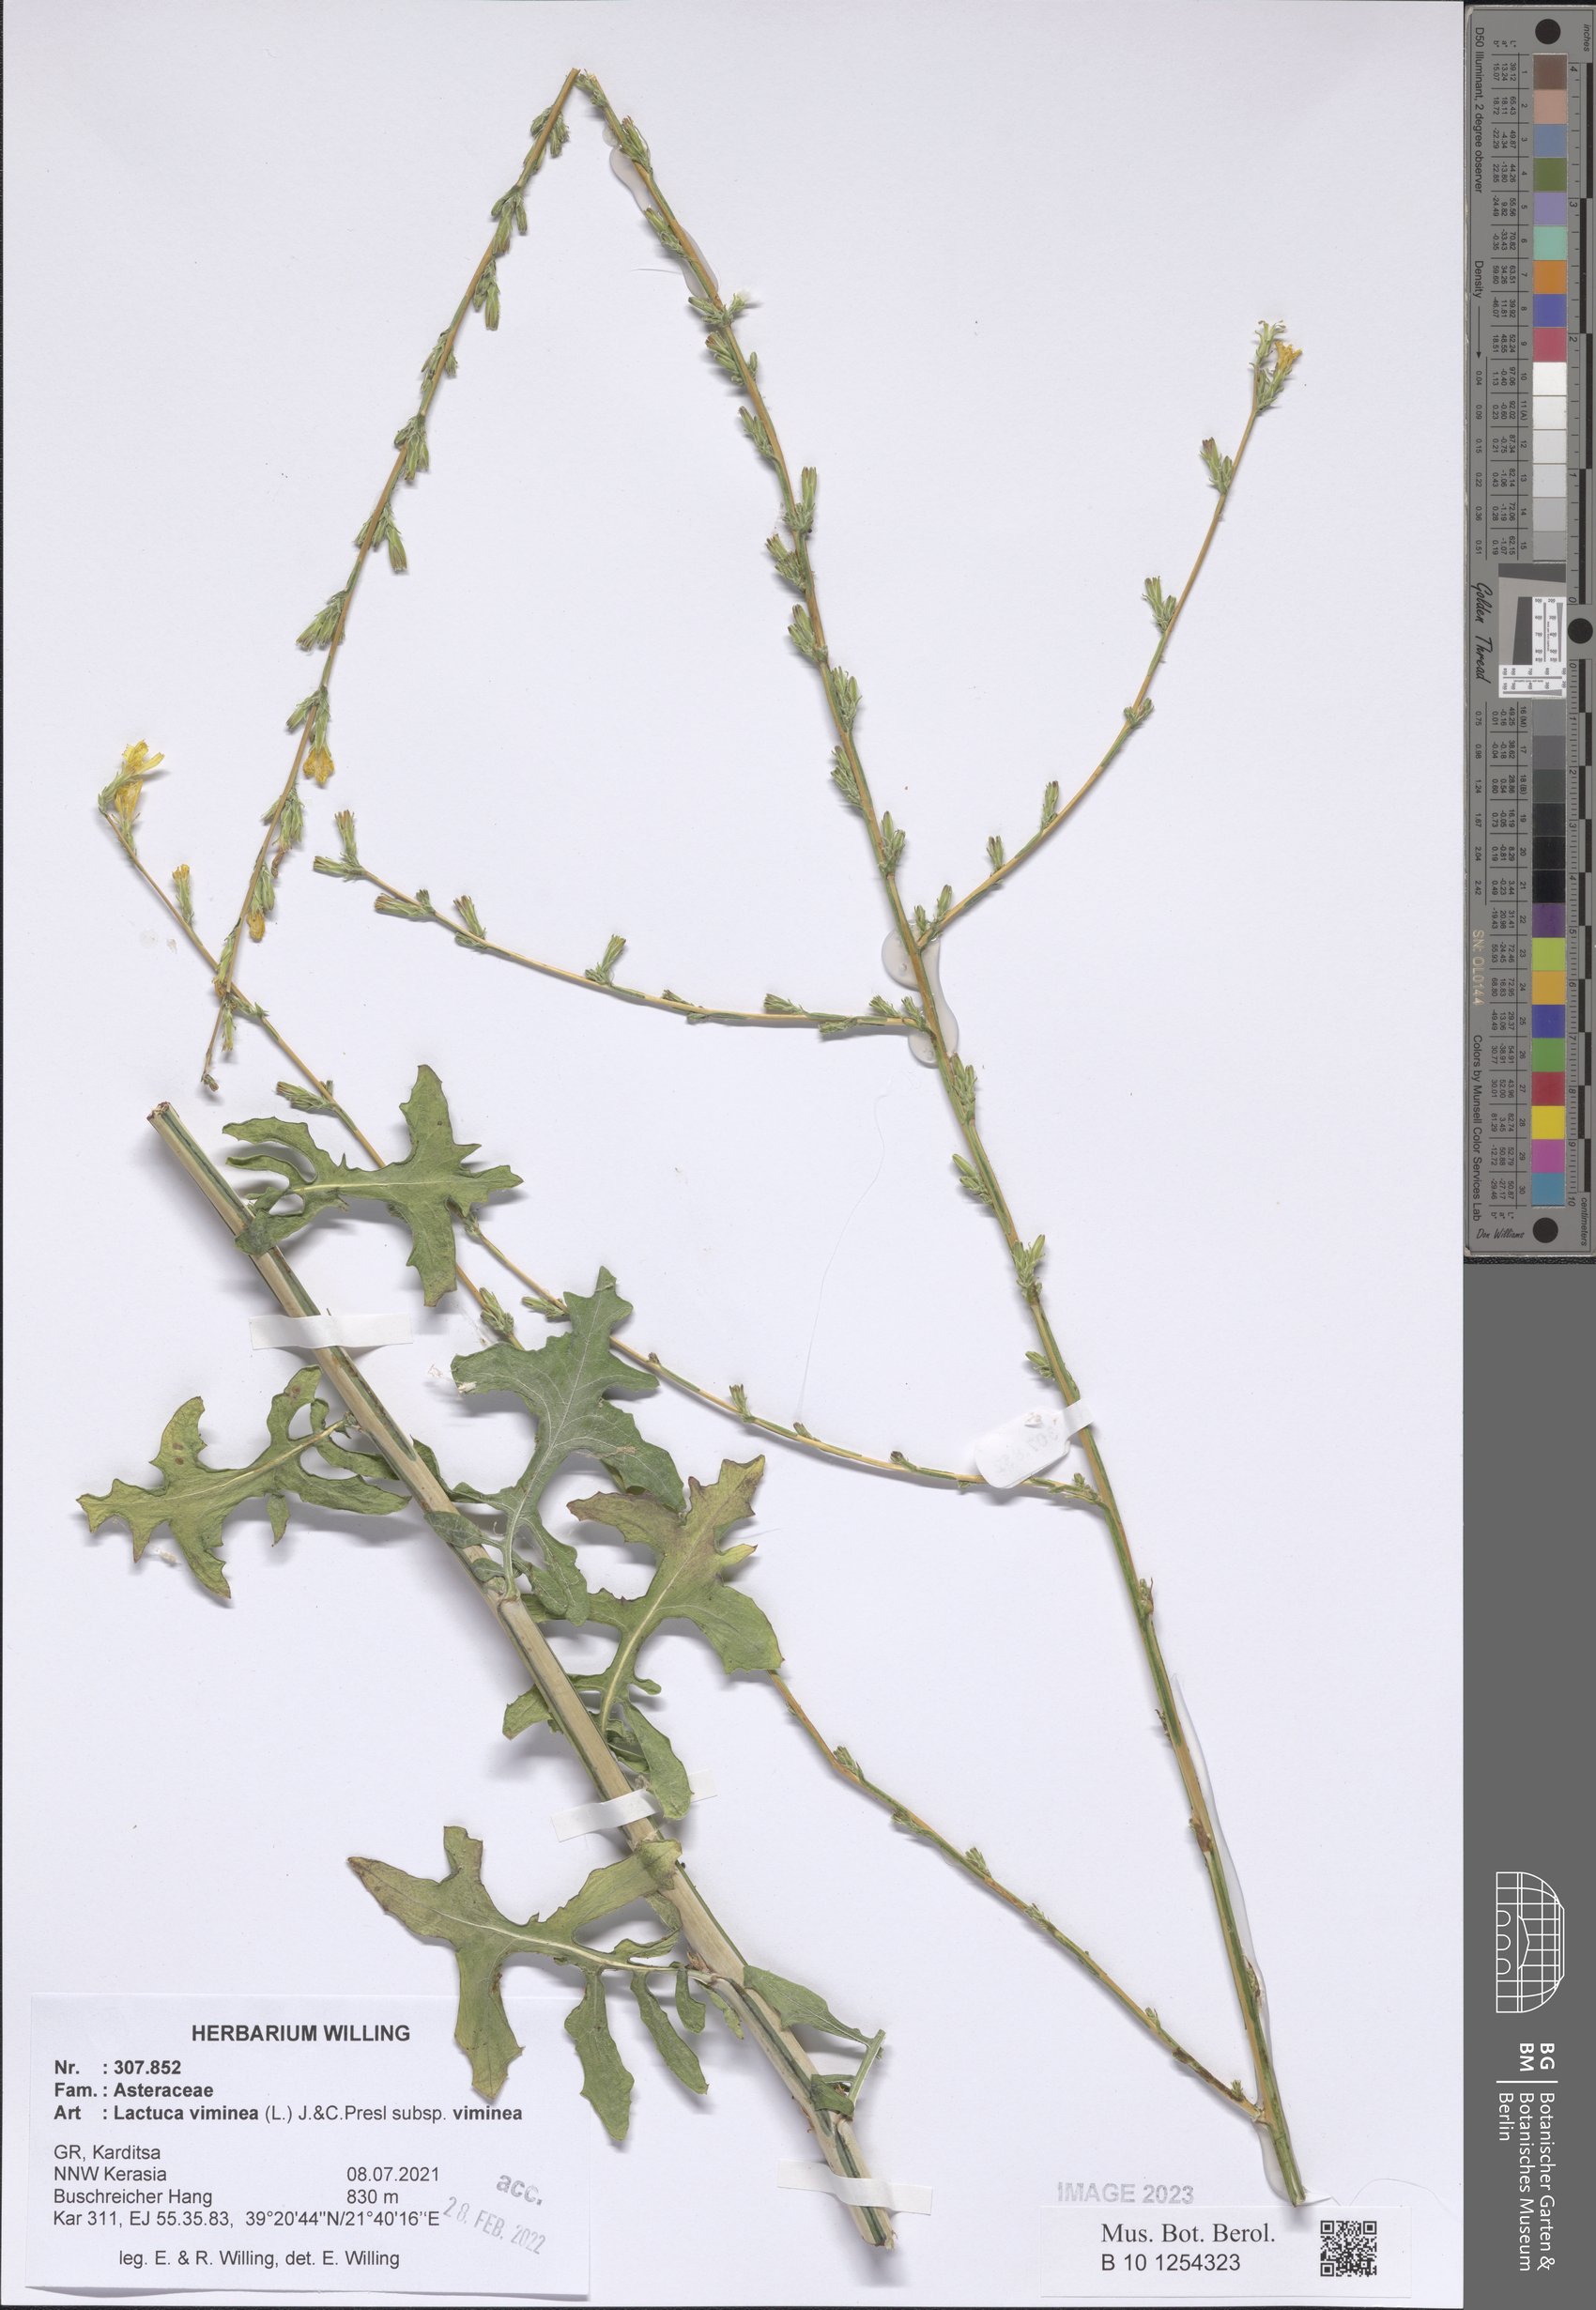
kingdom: Plantae
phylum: Tracheophyta
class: Magnoliopsida
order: Asterales
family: Asteraceae
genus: Lactuca
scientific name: Lactuca viminea
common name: Pliant lettuce
